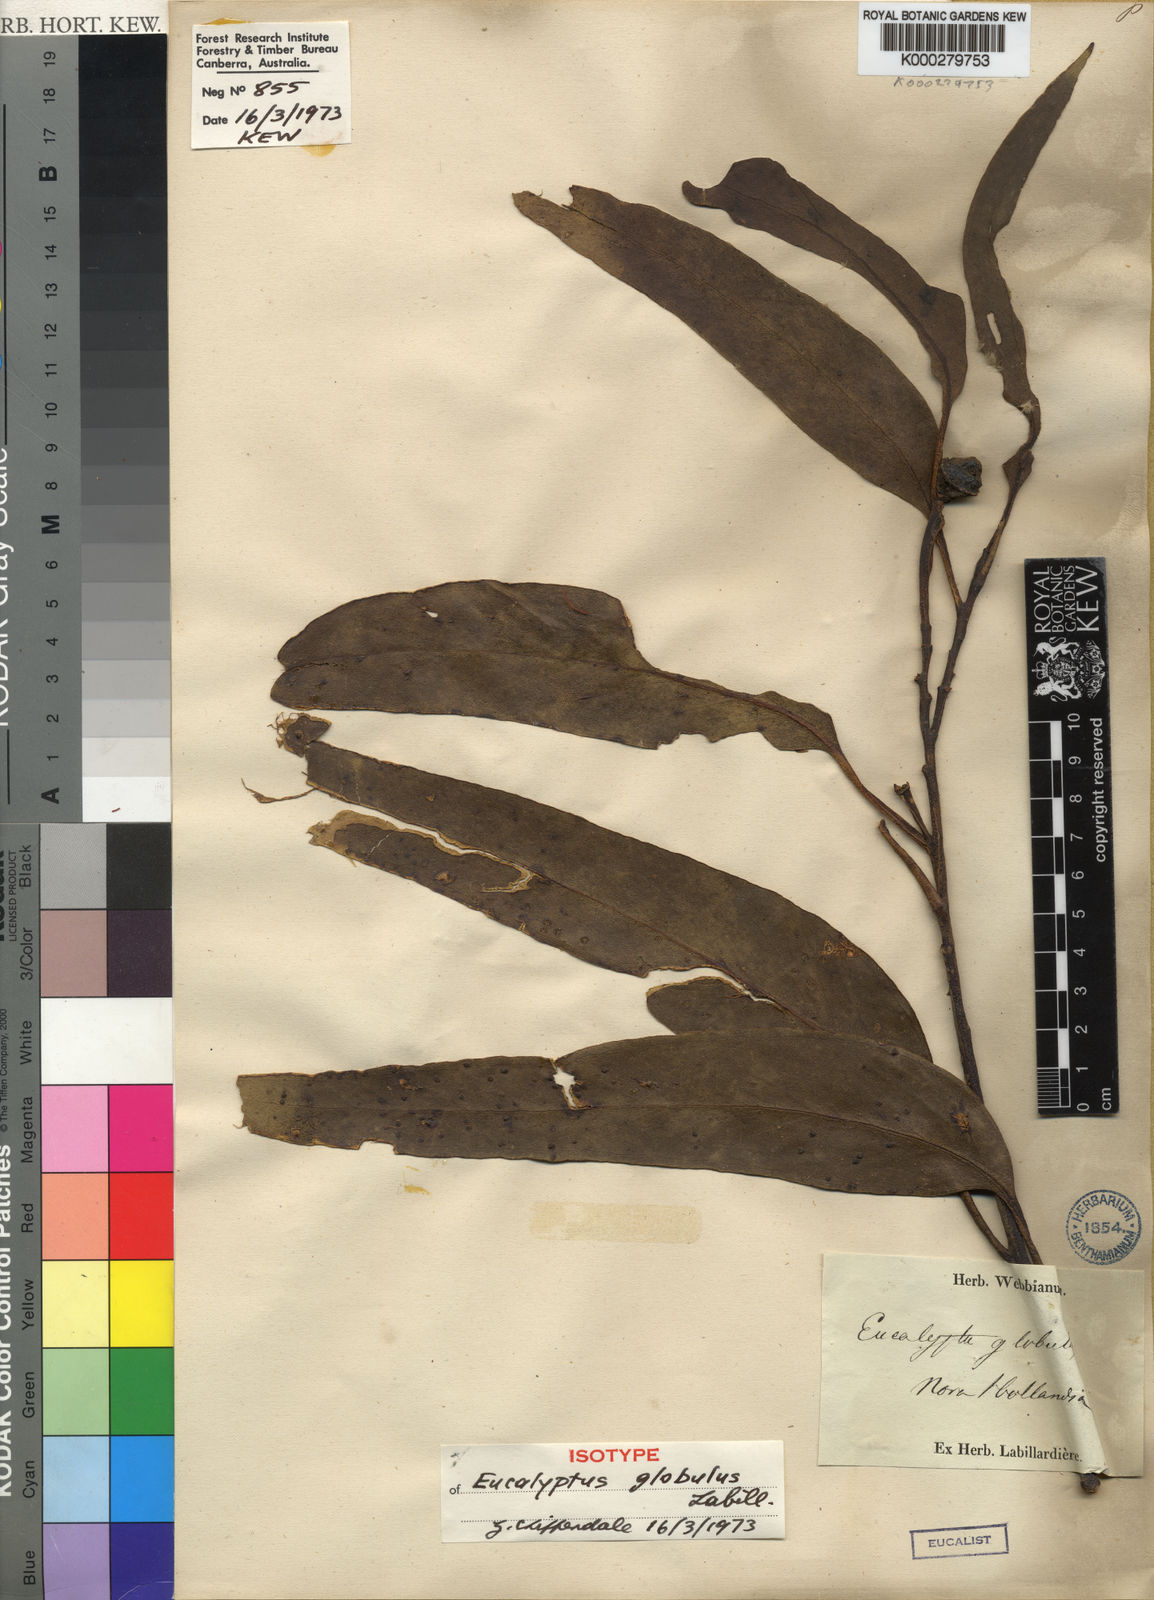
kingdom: Plantae
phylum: Tracheophyta
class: Magnoliopsida
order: Myrtales
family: Myrtaceae
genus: Eucalyptus
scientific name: Eucalyptus globulus
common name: Southern blue-gum
